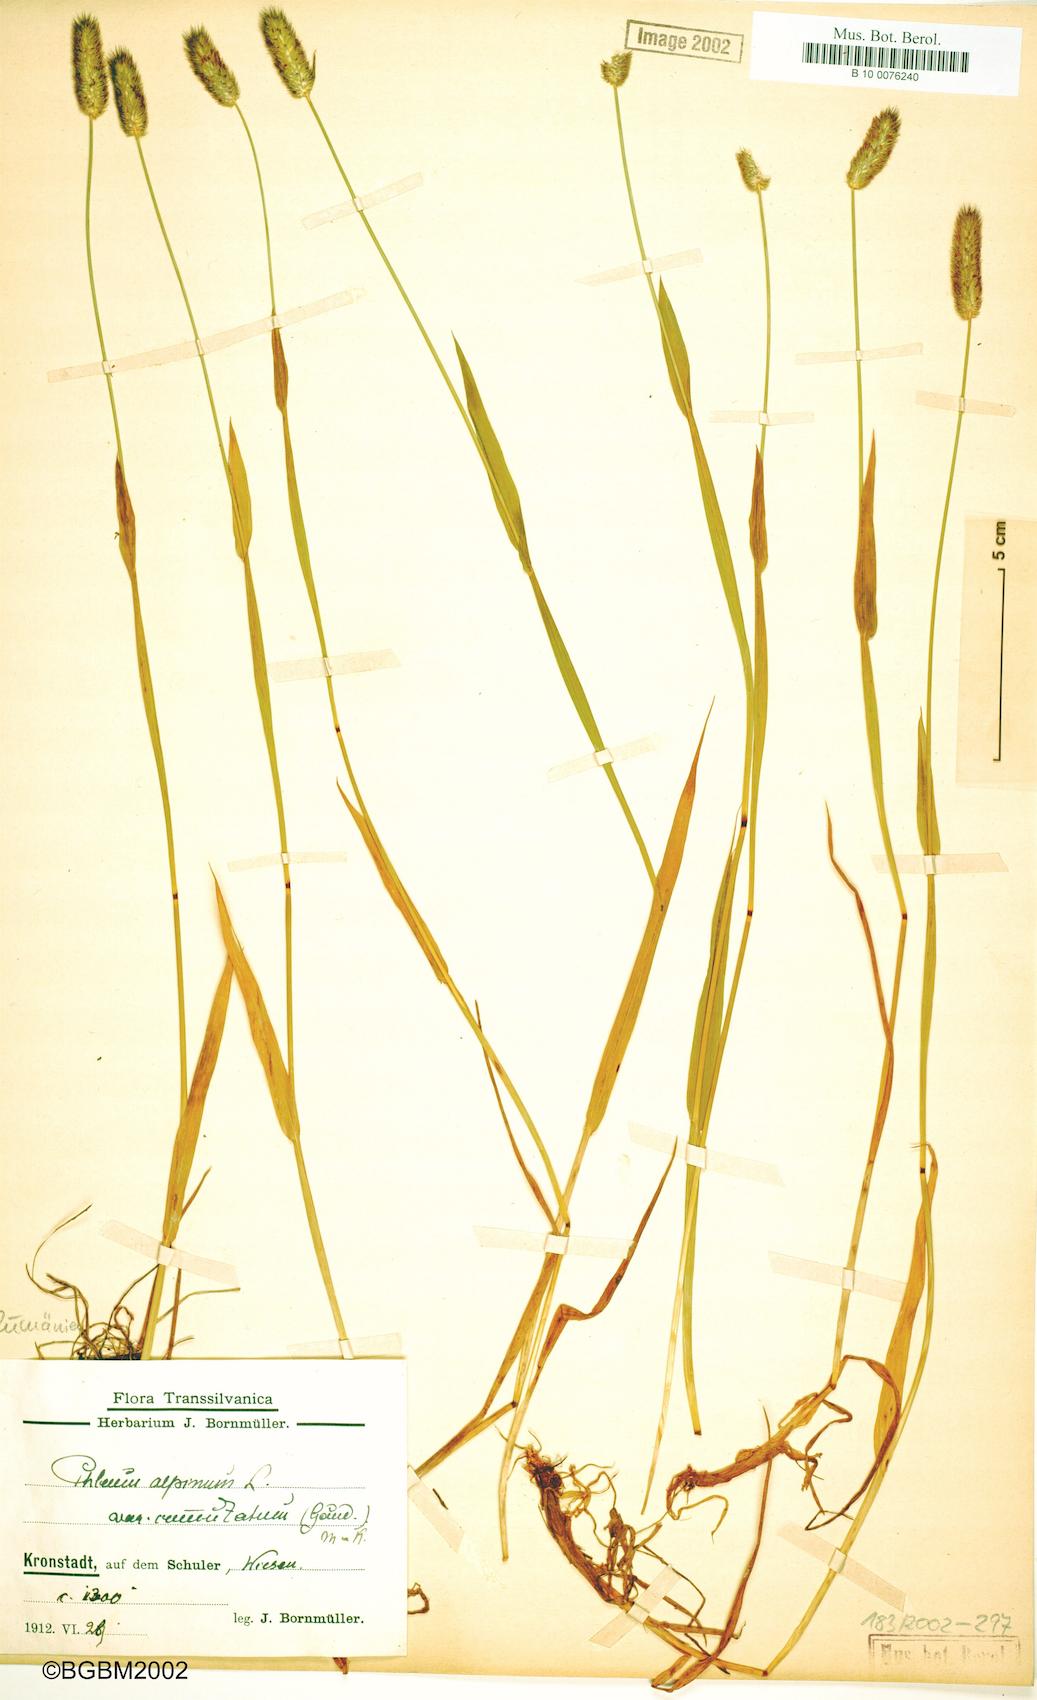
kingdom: Plantae
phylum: Tracheophyta
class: Liliopsida
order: Poales
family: Poaceae
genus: Phleum
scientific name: Phleum alpinum
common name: Alpine cat's-tail
